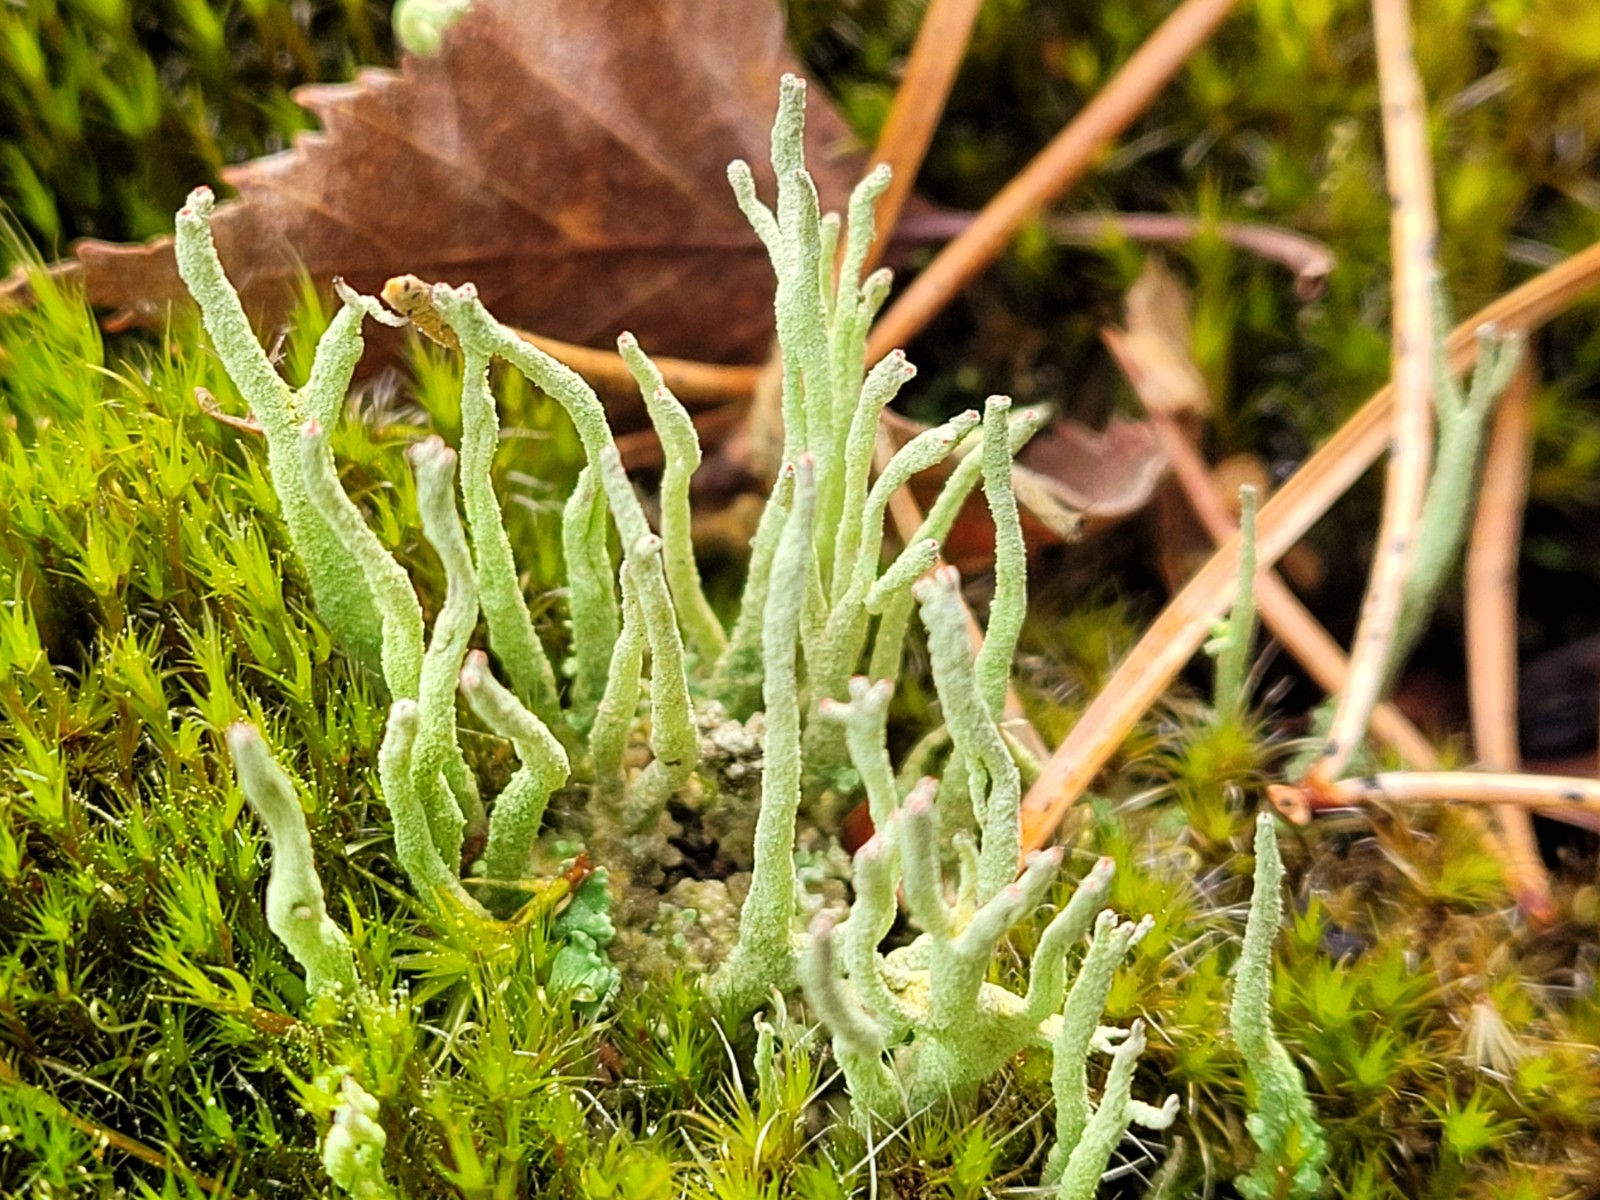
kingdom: Fungi
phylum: Ascomycota
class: Lecanoromycetes
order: Lecanorales
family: Cladoniaceae
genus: Cladonia
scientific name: Cladonia macilenta
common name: indsvunden bægerlav
